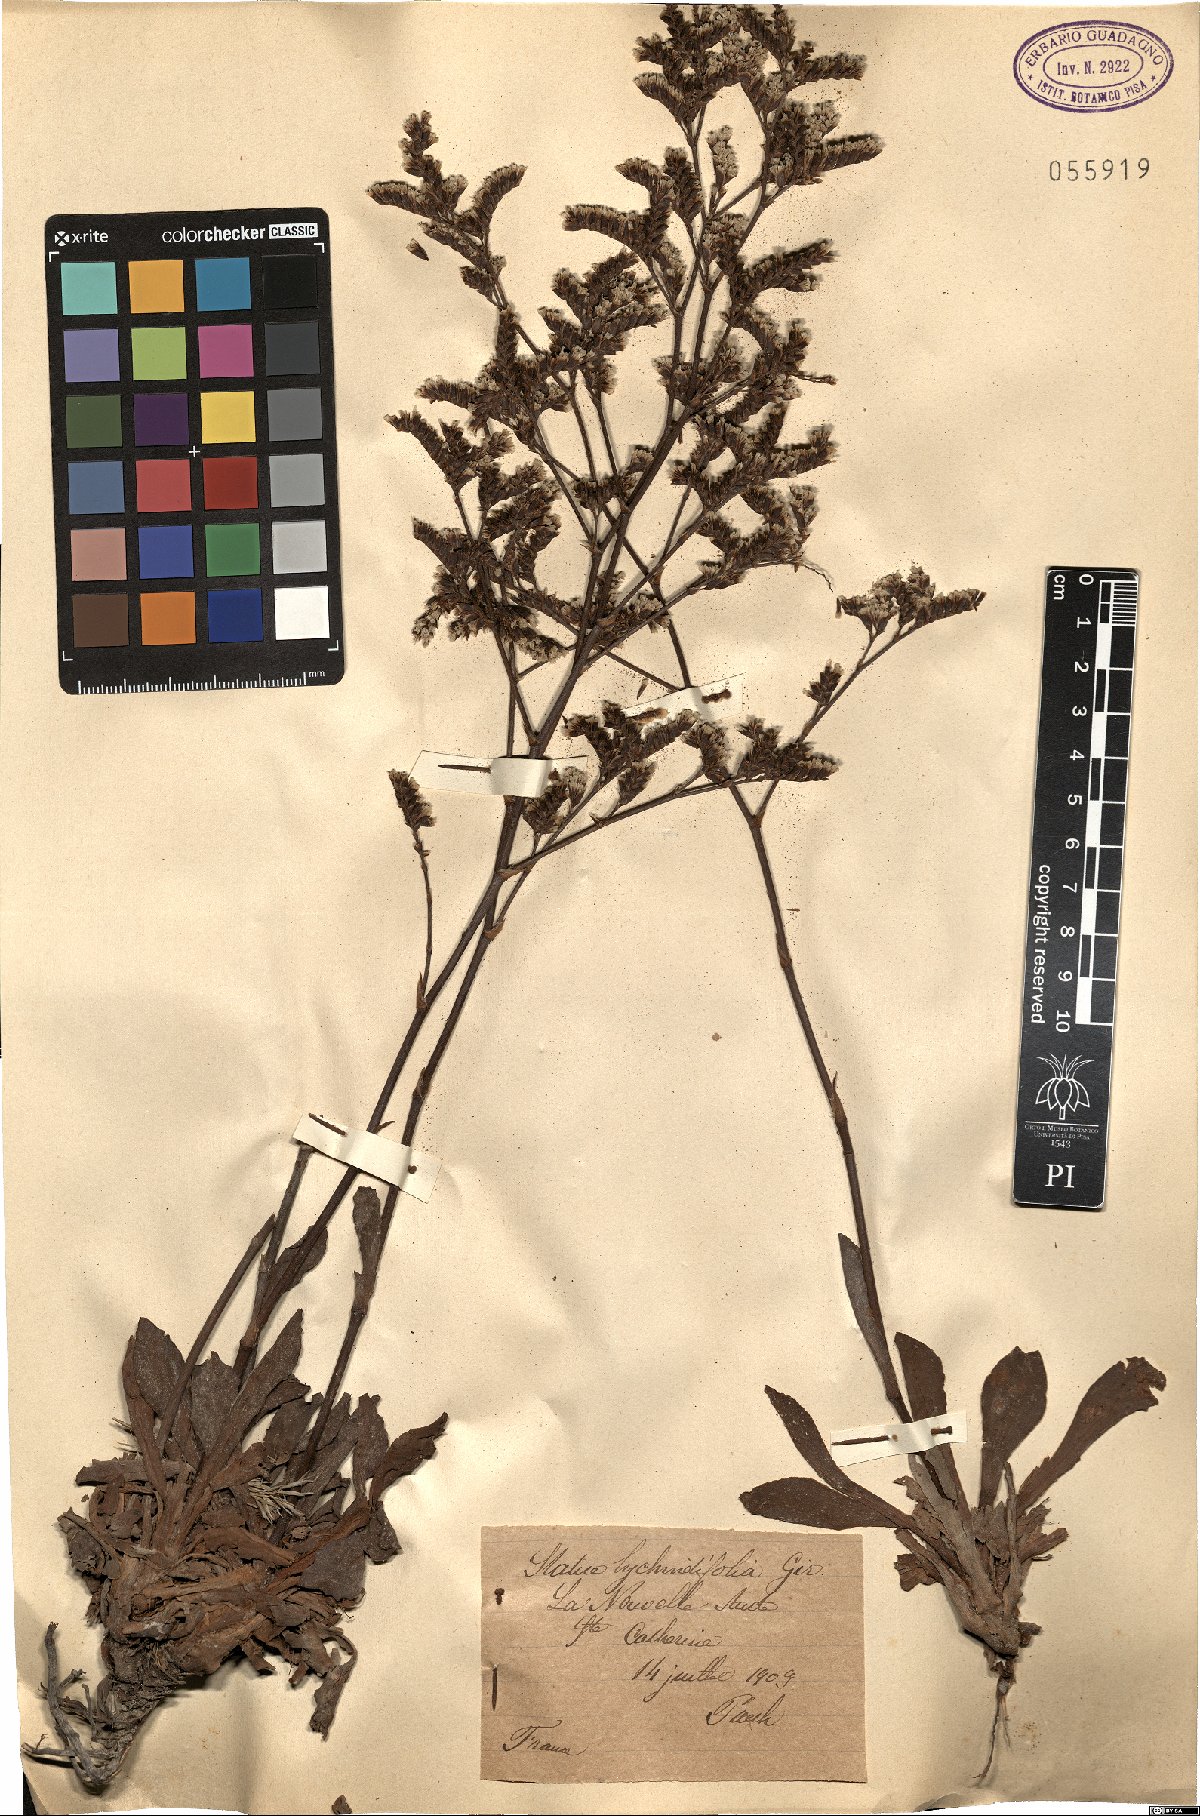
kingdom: Plantae
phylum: Tracheophyta
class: Magnoliopsida
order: Caryophyllales
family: Plumbaginaceae
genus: Limonium
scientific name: Limonium auriculae-ursifolium
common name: Broad-leaved sea-lavender
